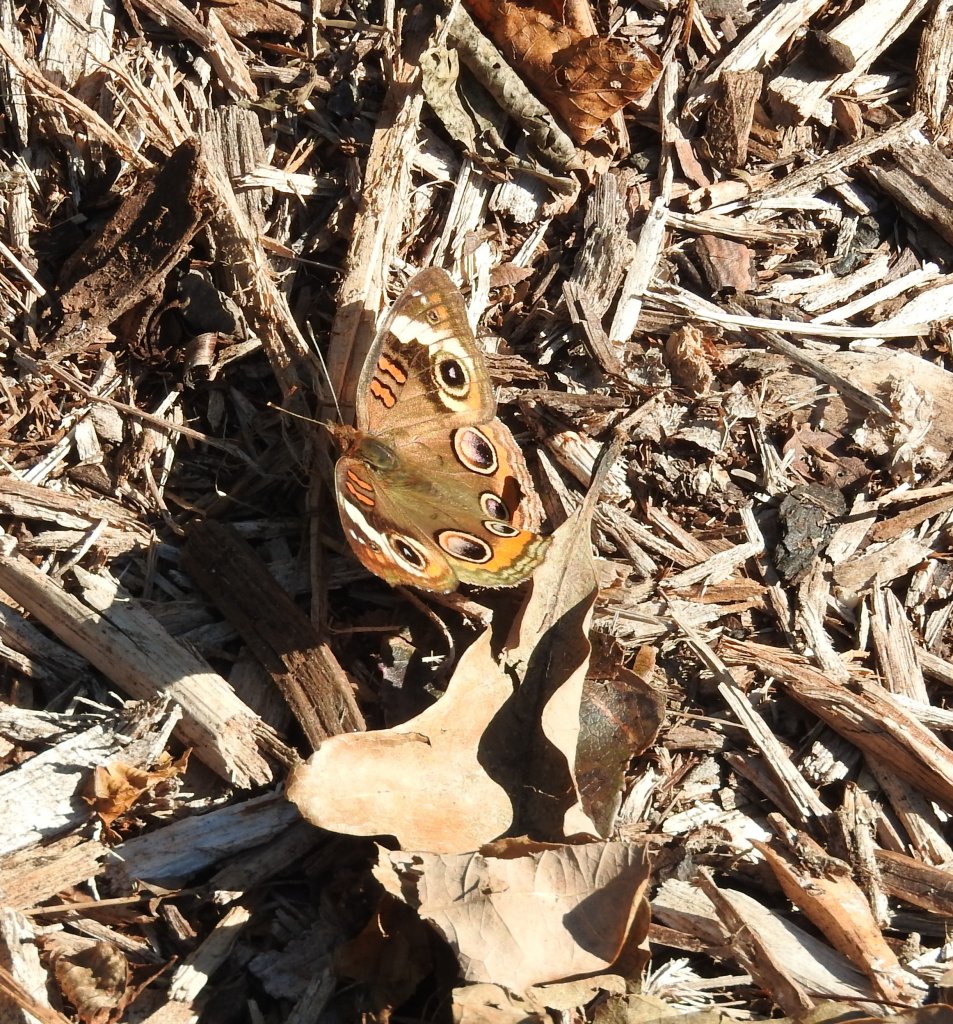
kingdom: Animalia
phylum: Arthropoda
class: Insecta
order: Lepidoptera
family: Nymphalidae
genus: Junonia
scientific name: Junonia coenia
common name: Common Buckeye
